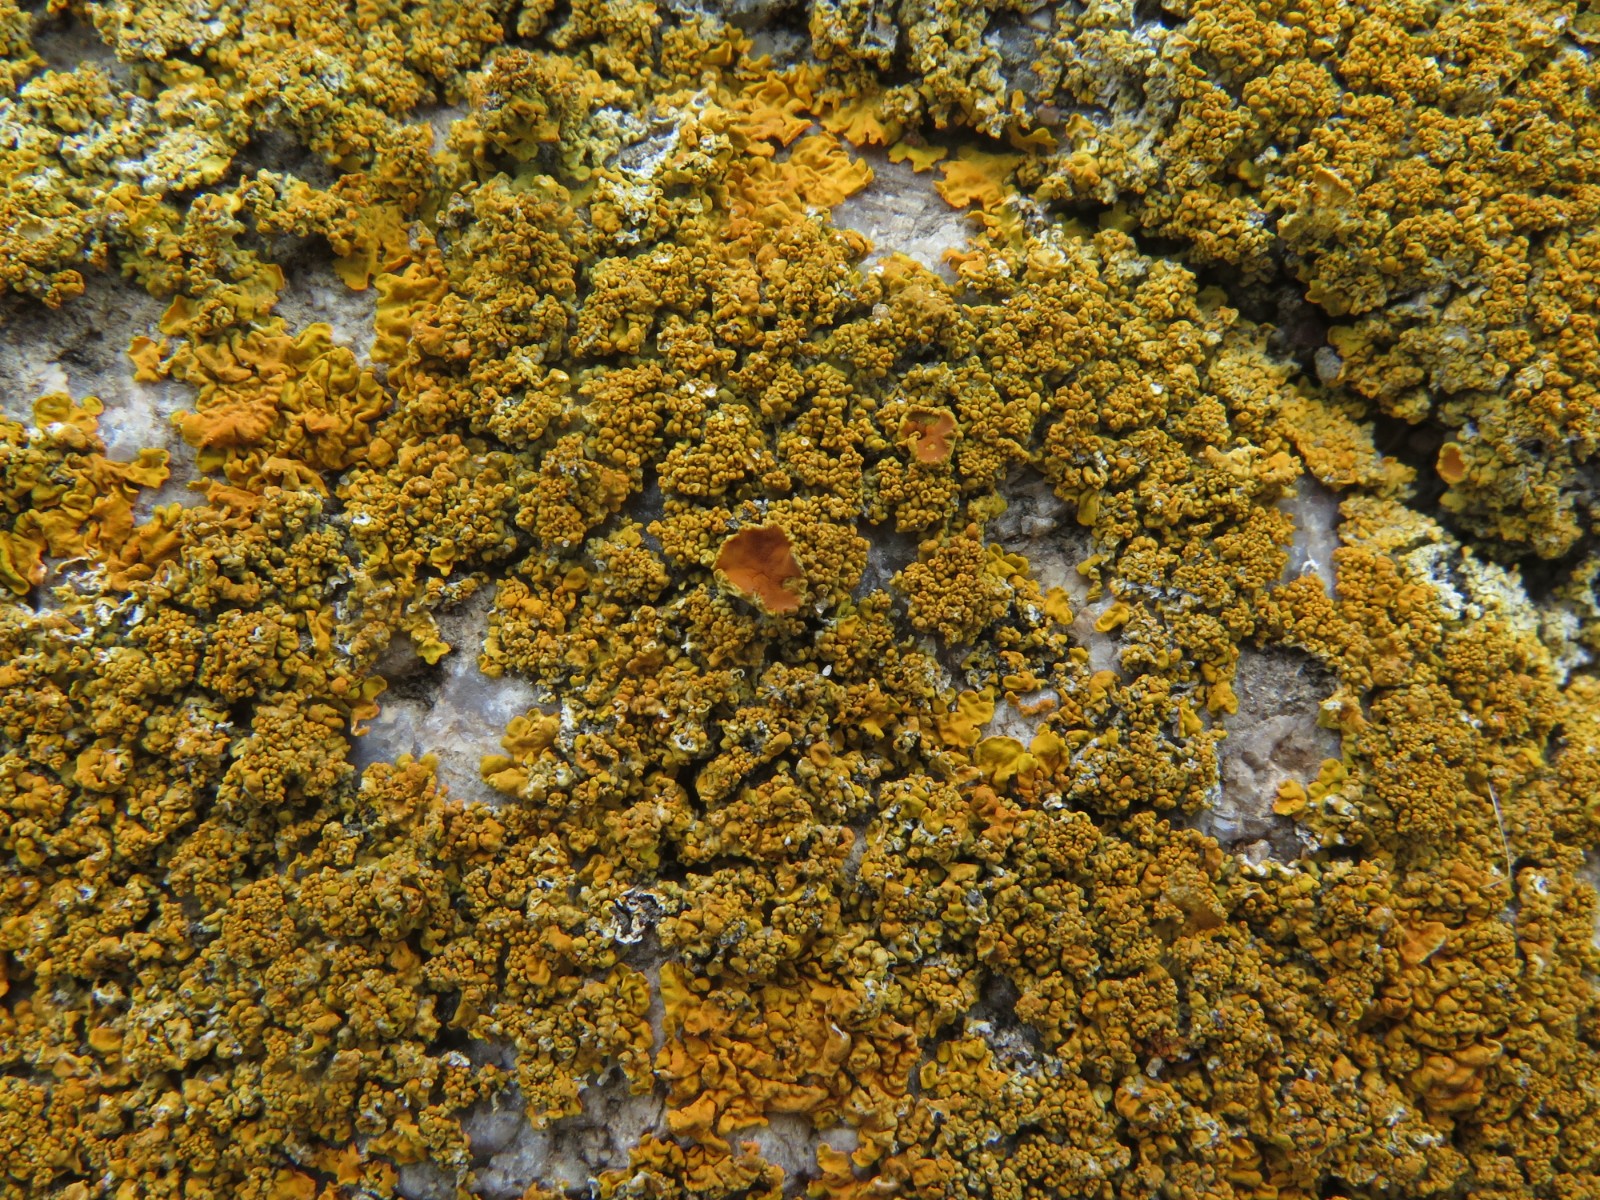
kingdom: Fungi
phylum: Ascomycota
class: Lecanoromycetes
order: Teloschistales
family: Teloschistaceae
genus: Xanthoria
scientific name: Xanthoria calcicola
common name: vortet væggelav
